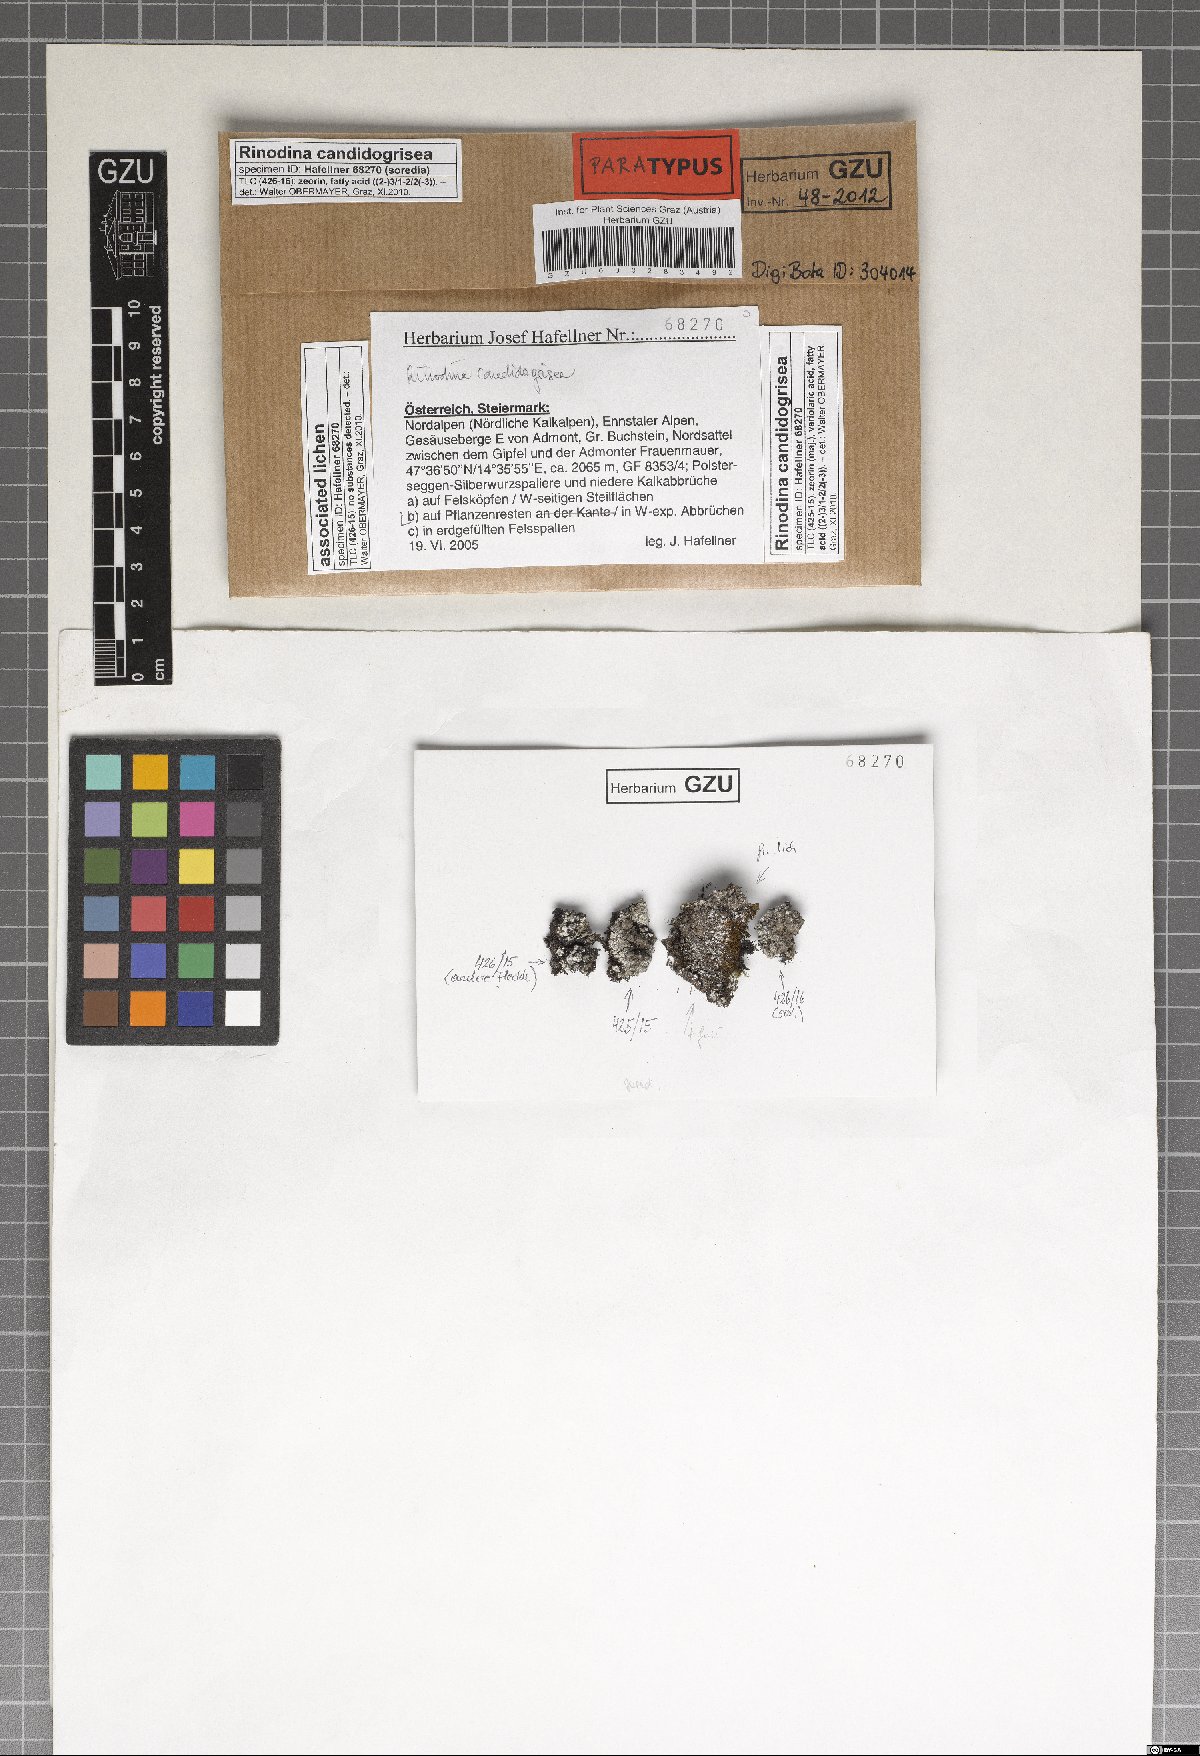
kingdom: Fungi
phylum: Ascomycota
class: Lecanoromycetes
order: Caliciales
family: Physciaceae
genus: Kudratovia
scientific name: Kudratovia candidogrisea
